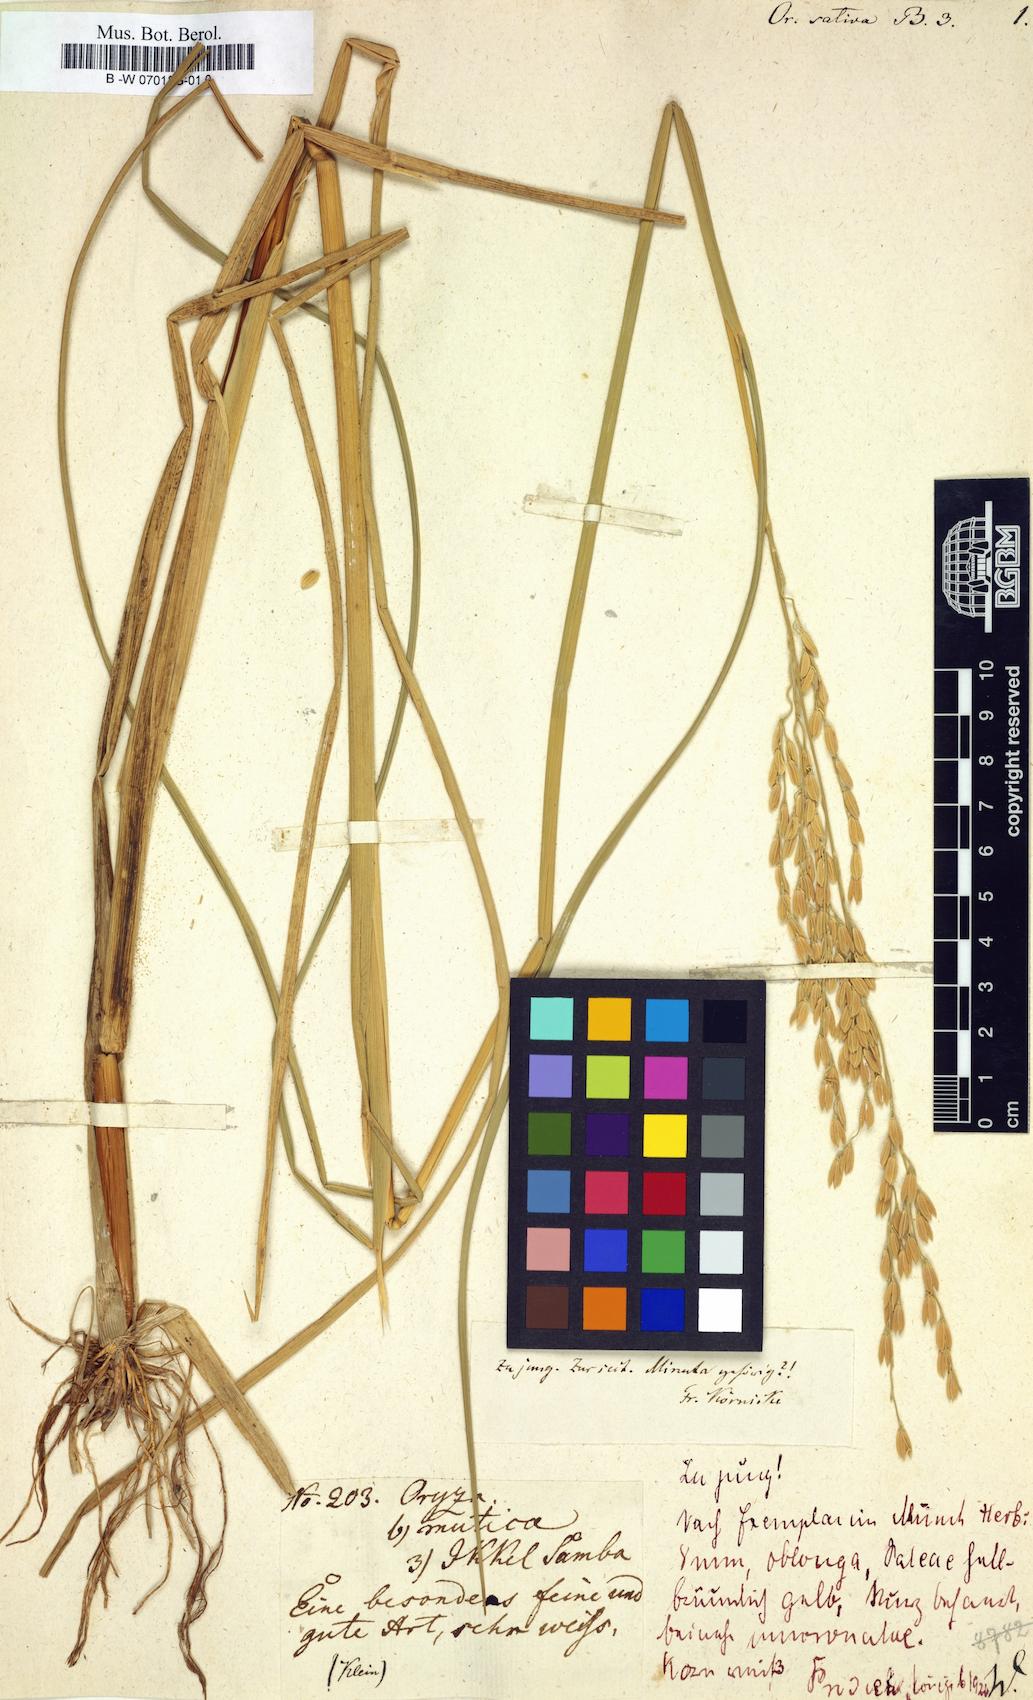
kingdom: Plantae
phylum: Tracheophyta
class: Liliopsida
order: Poales
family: Poaceae
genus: Oryza
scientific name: Oryza sativa
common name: Rice
